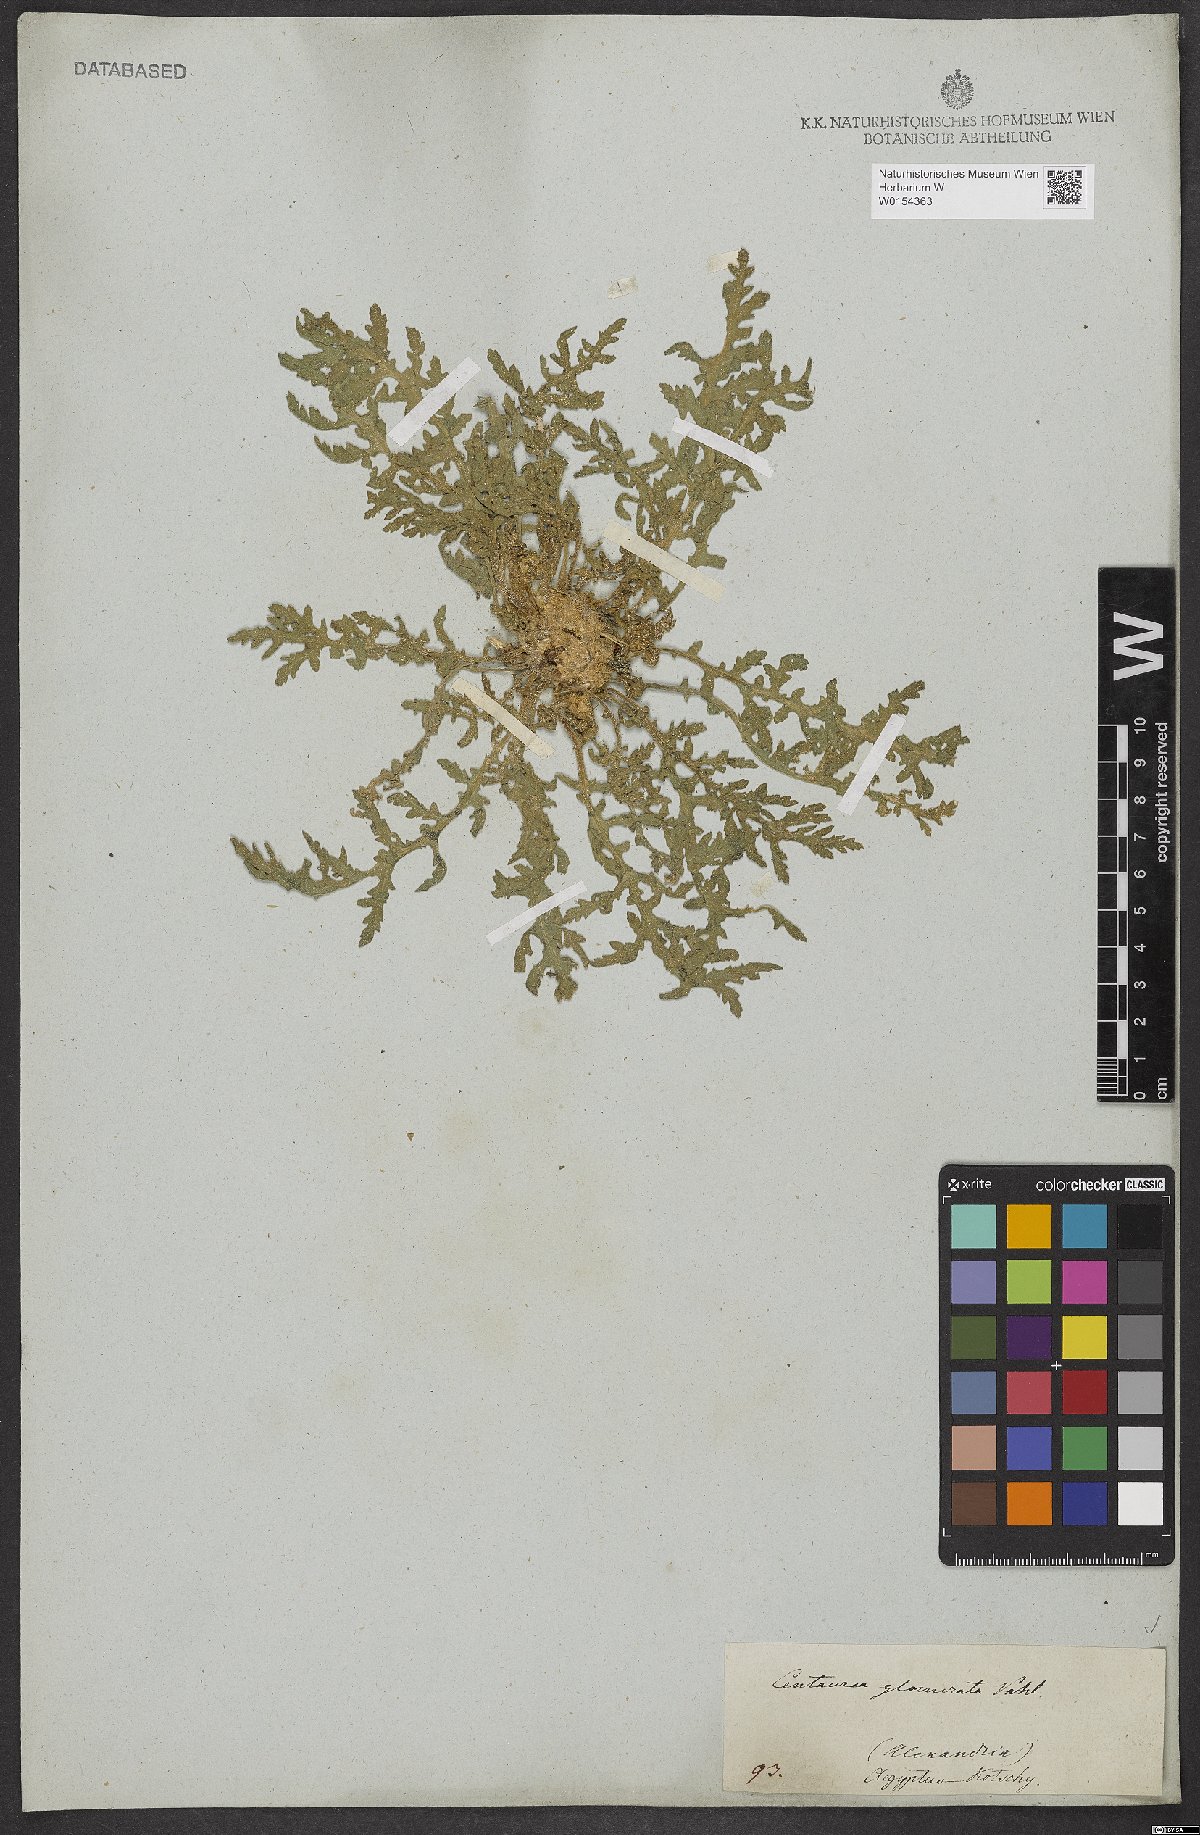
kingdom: Plantae
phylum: Tracheophyta
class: Magnoliopsida
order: Asterales
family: Asteraceae
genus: Centaurea
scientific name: Centaurea glomerata
